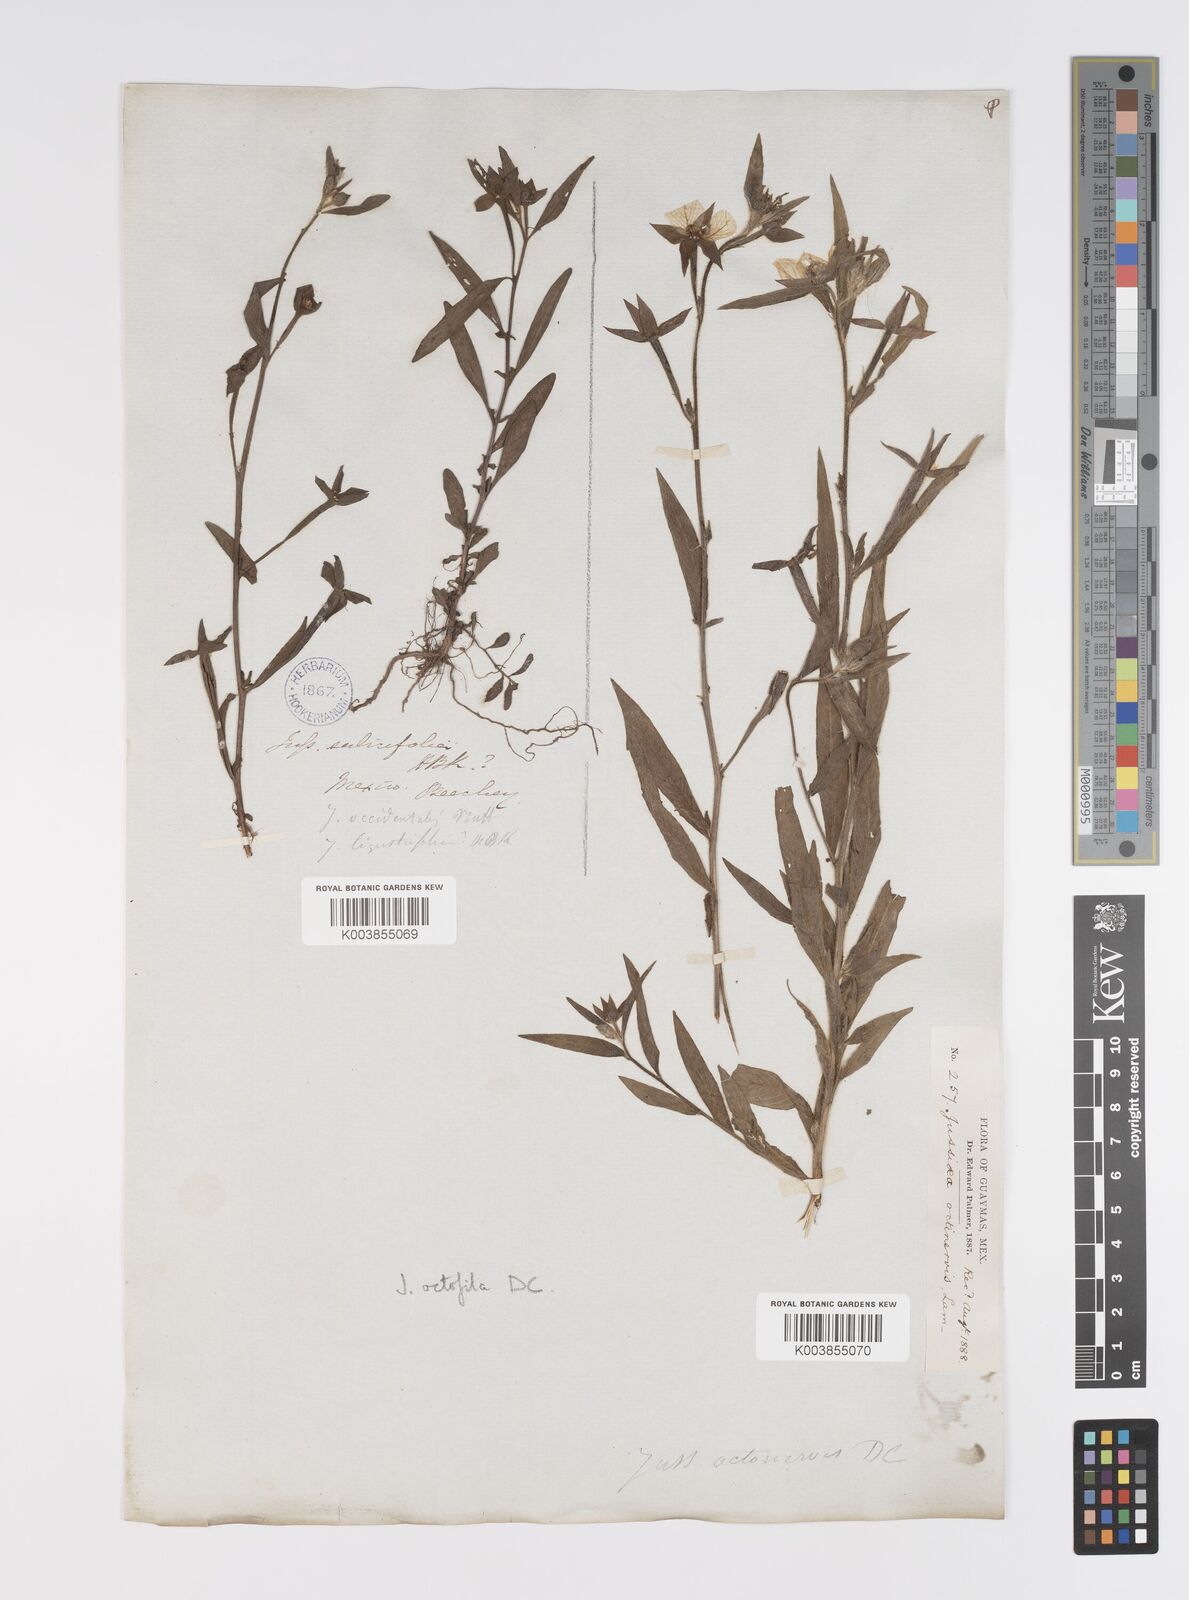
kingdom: Plantae
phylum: Tracheophyta
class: Magnoliopsida
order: Myrtales
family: Onagraceae
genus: Ludwigia
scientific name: Ludwigia octovalvis
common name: Water-primrose
